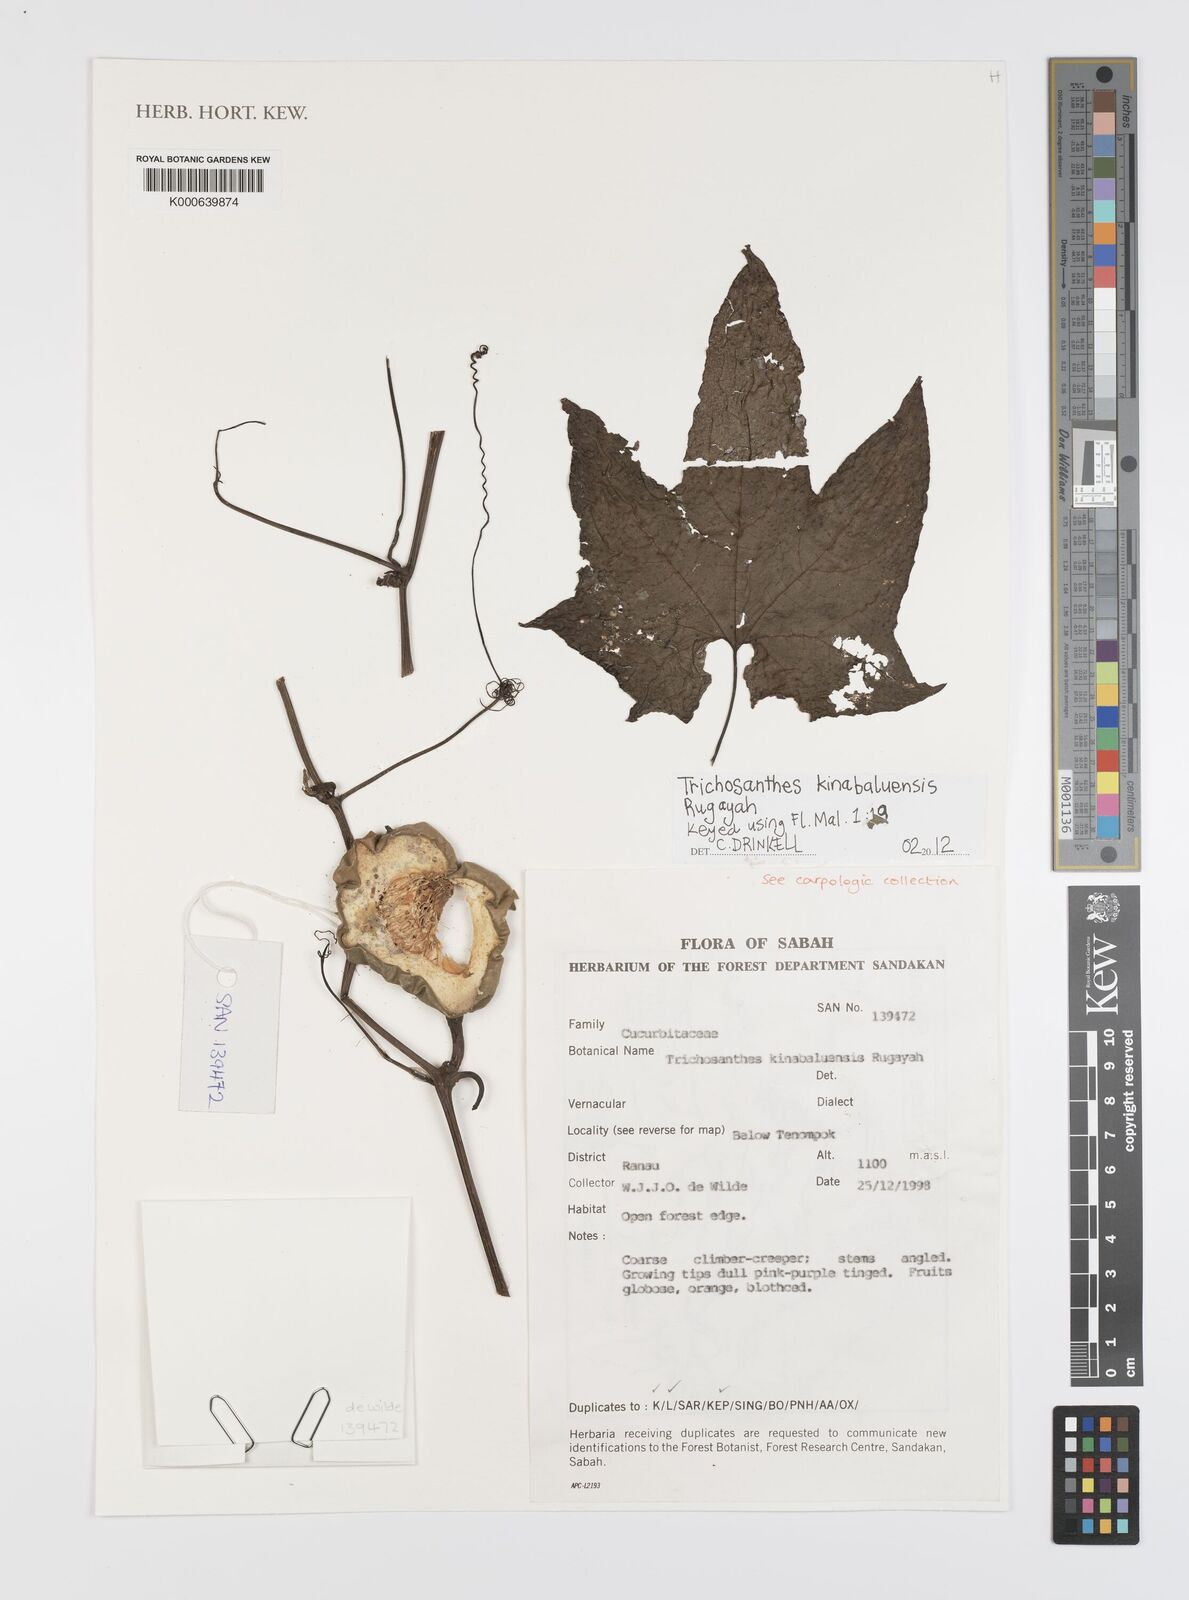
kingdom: Plantae
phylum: Tracheophyta
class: Magnoliopsida
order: Cucurbitales
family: Cucurbitaceae
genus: Trichosanthes
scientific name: Trichosanthes kinabaluensis
